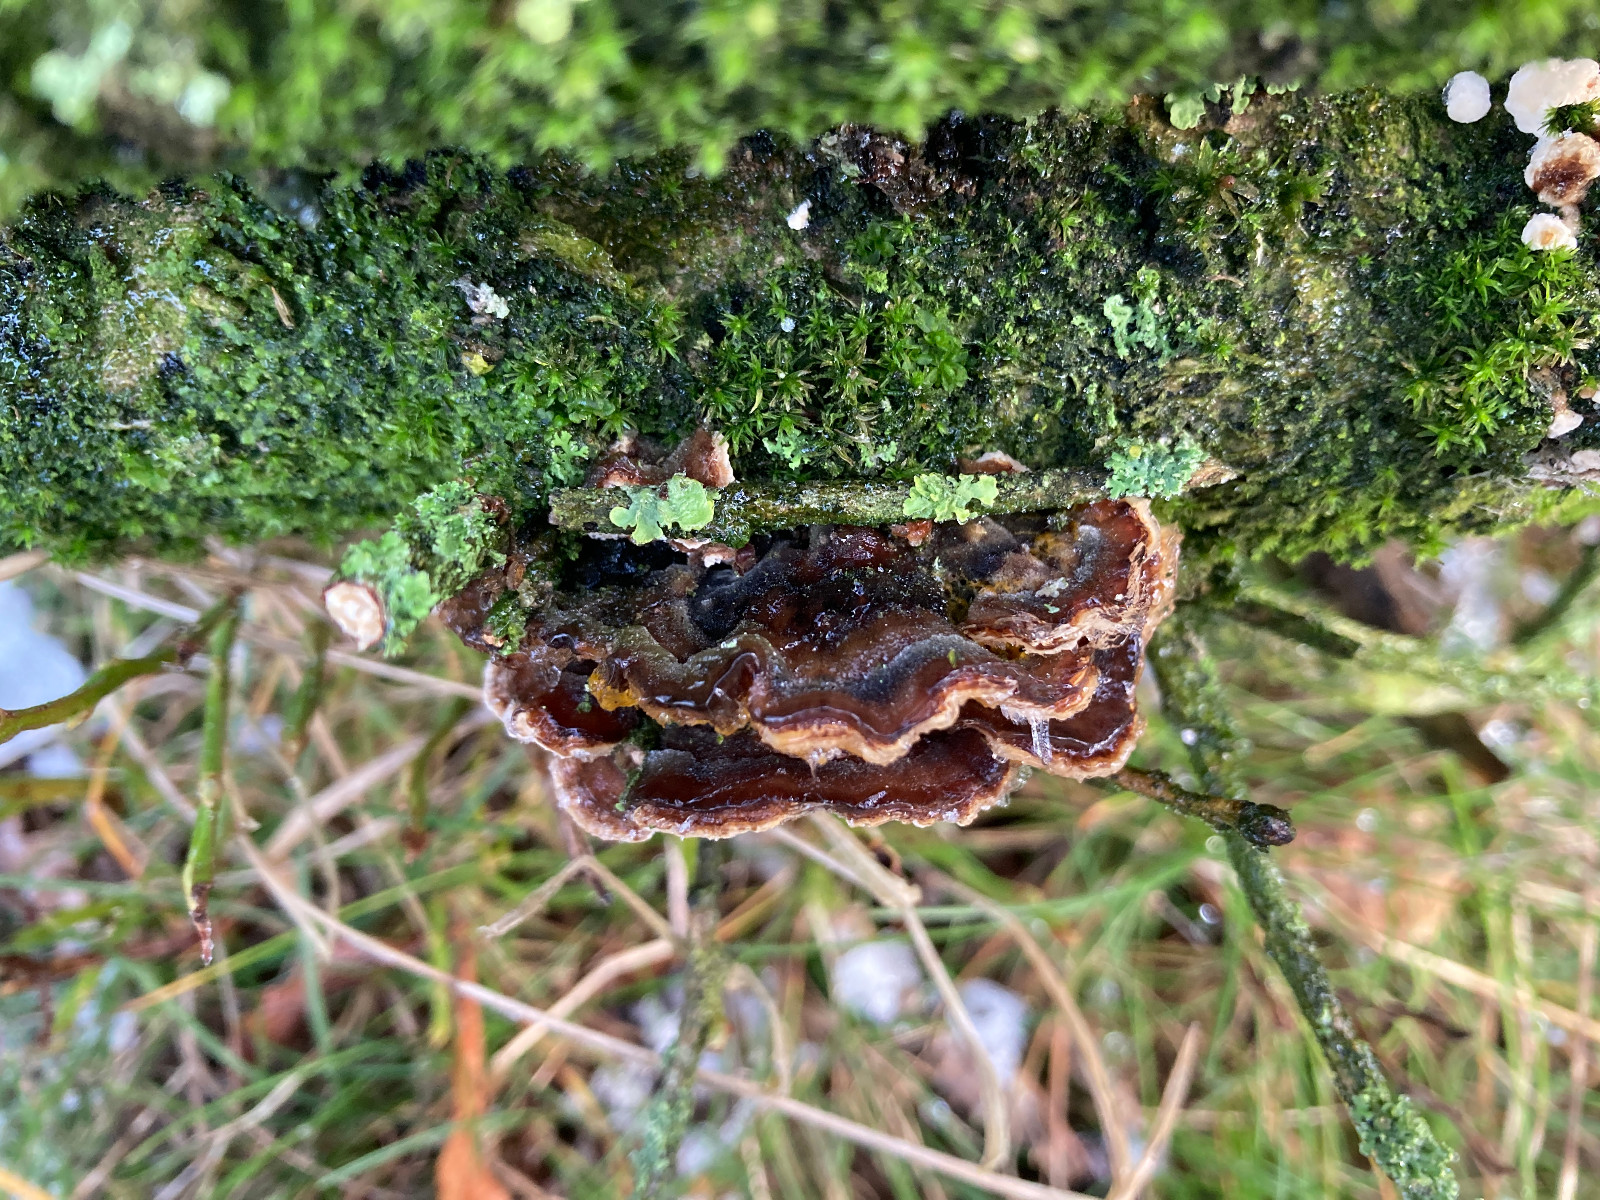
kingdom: Protozoa
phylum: Mycetozoa
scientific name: Mycetozoa
